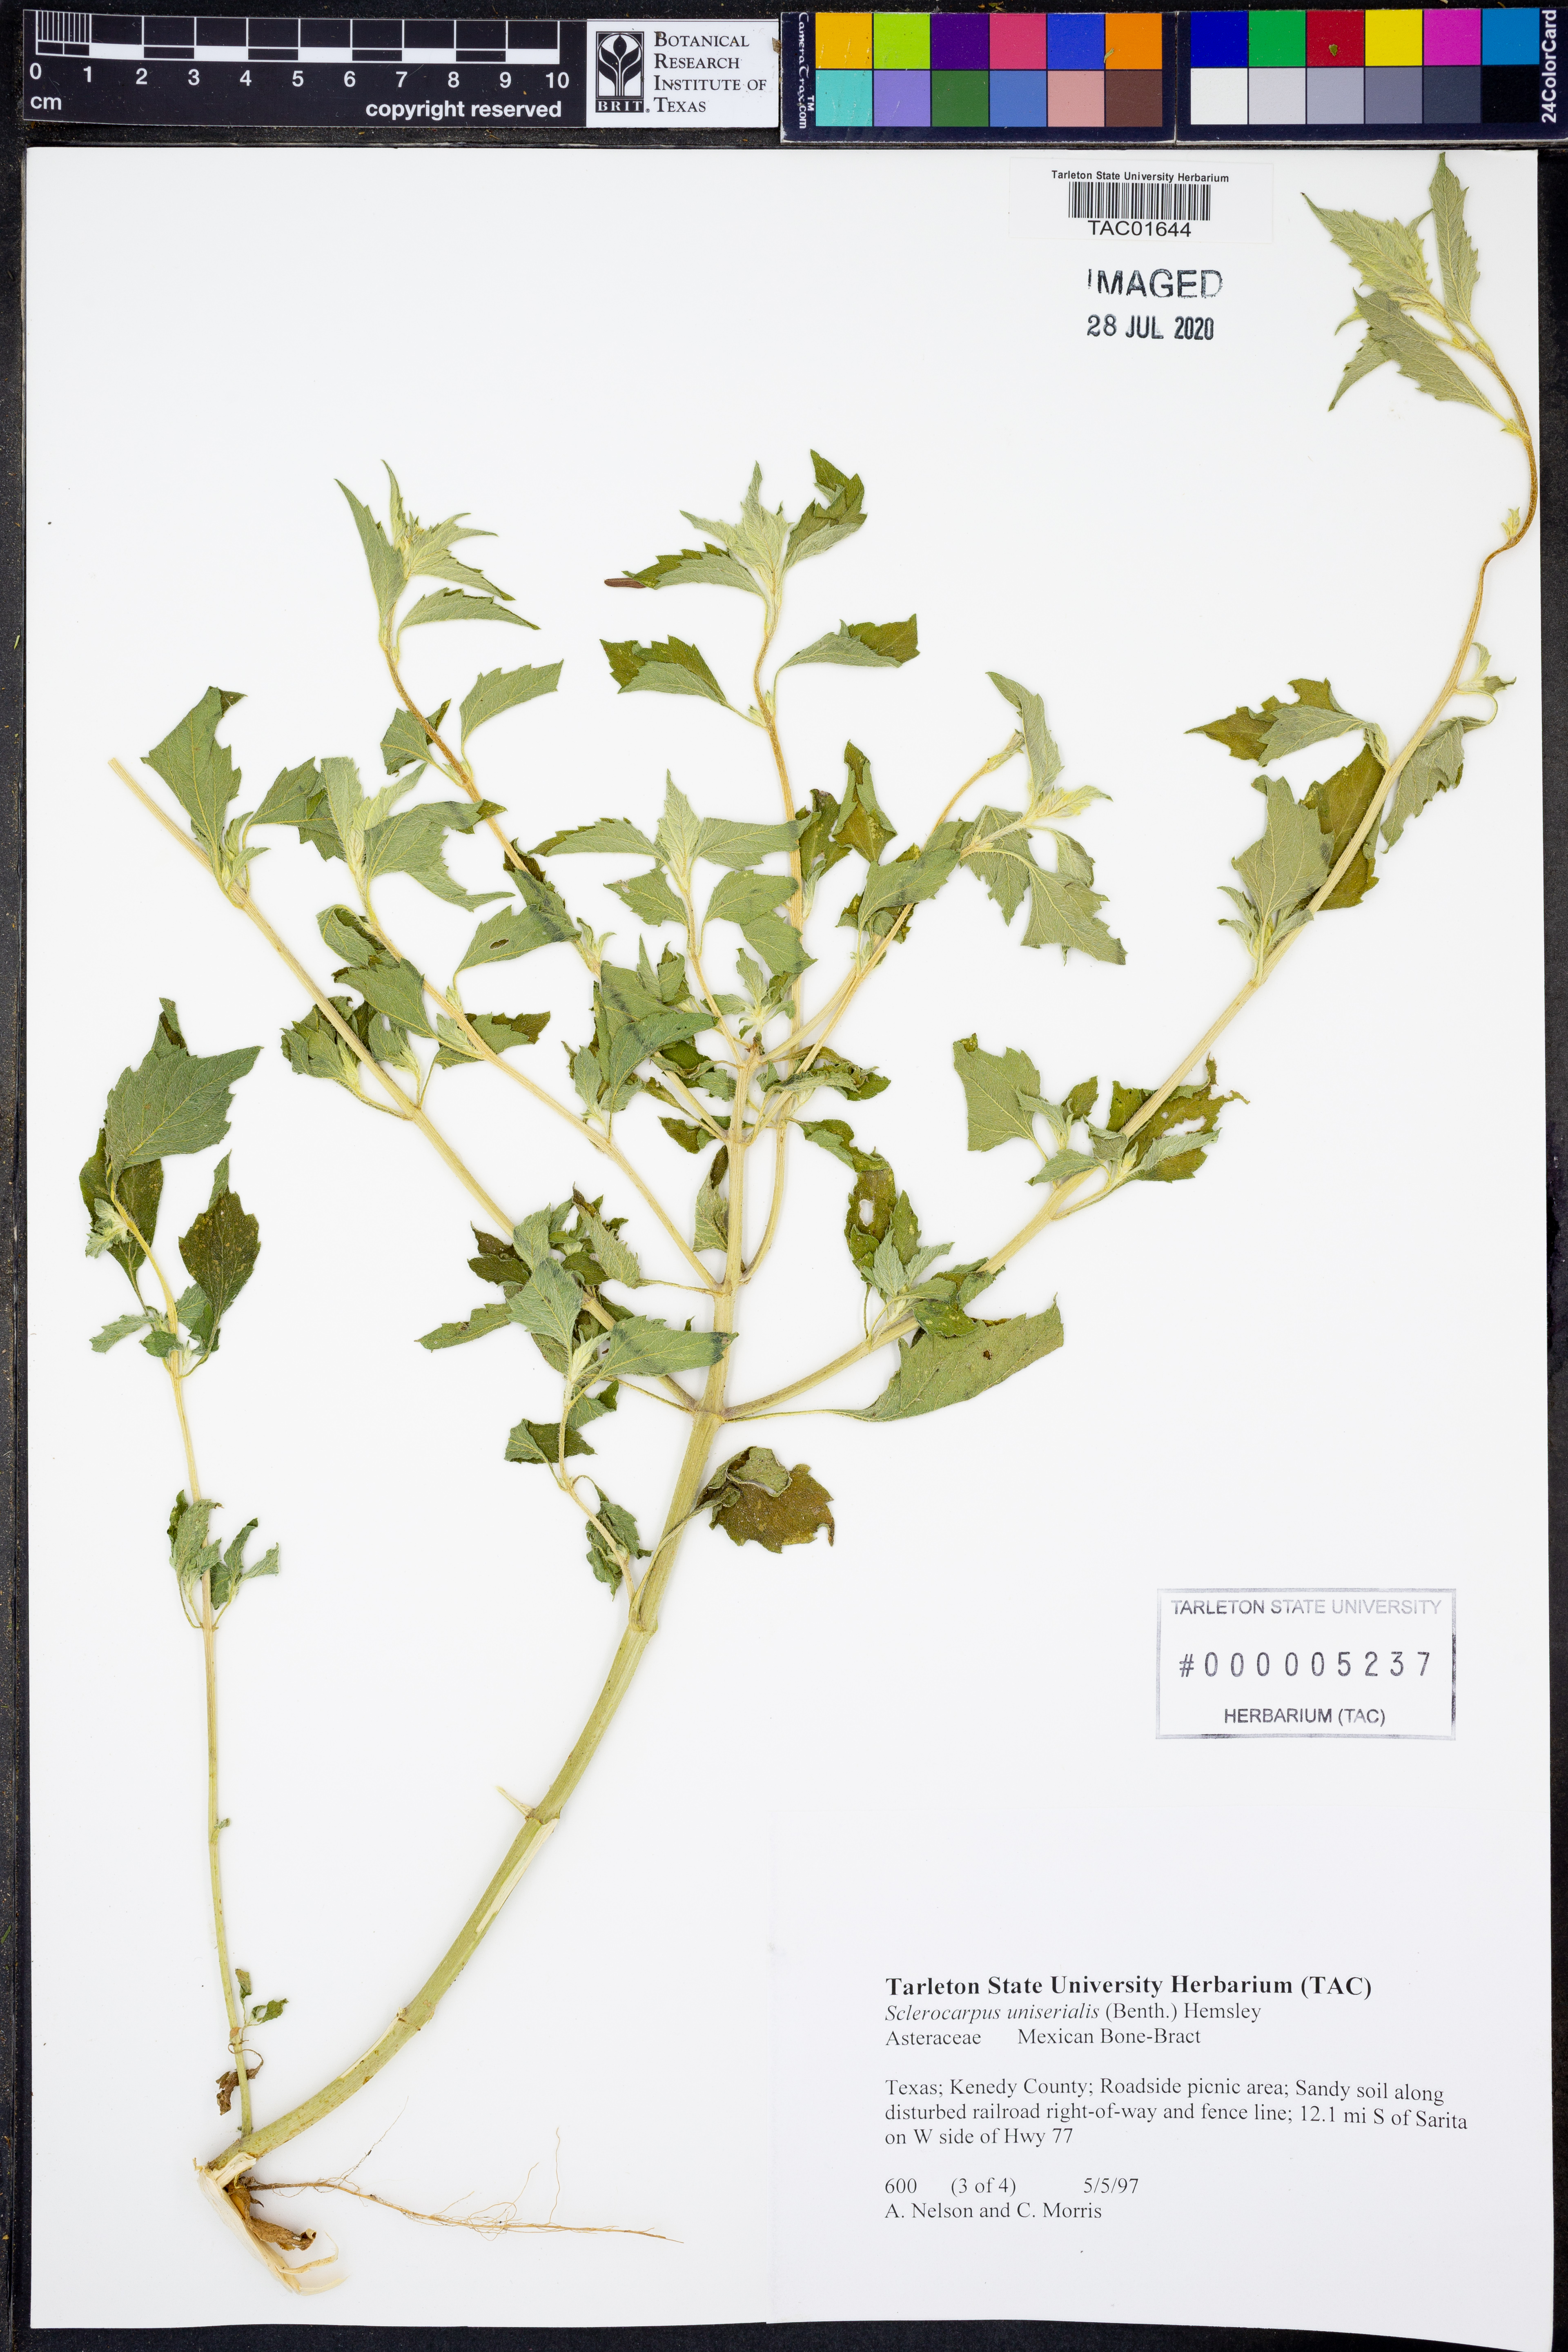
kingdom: Plantae
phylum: Tracheophyta
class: Magnoliopsida
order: Asterales
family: Asteraceae
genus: Sclerocarpus
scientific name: Sclerocarpus uniserialis
